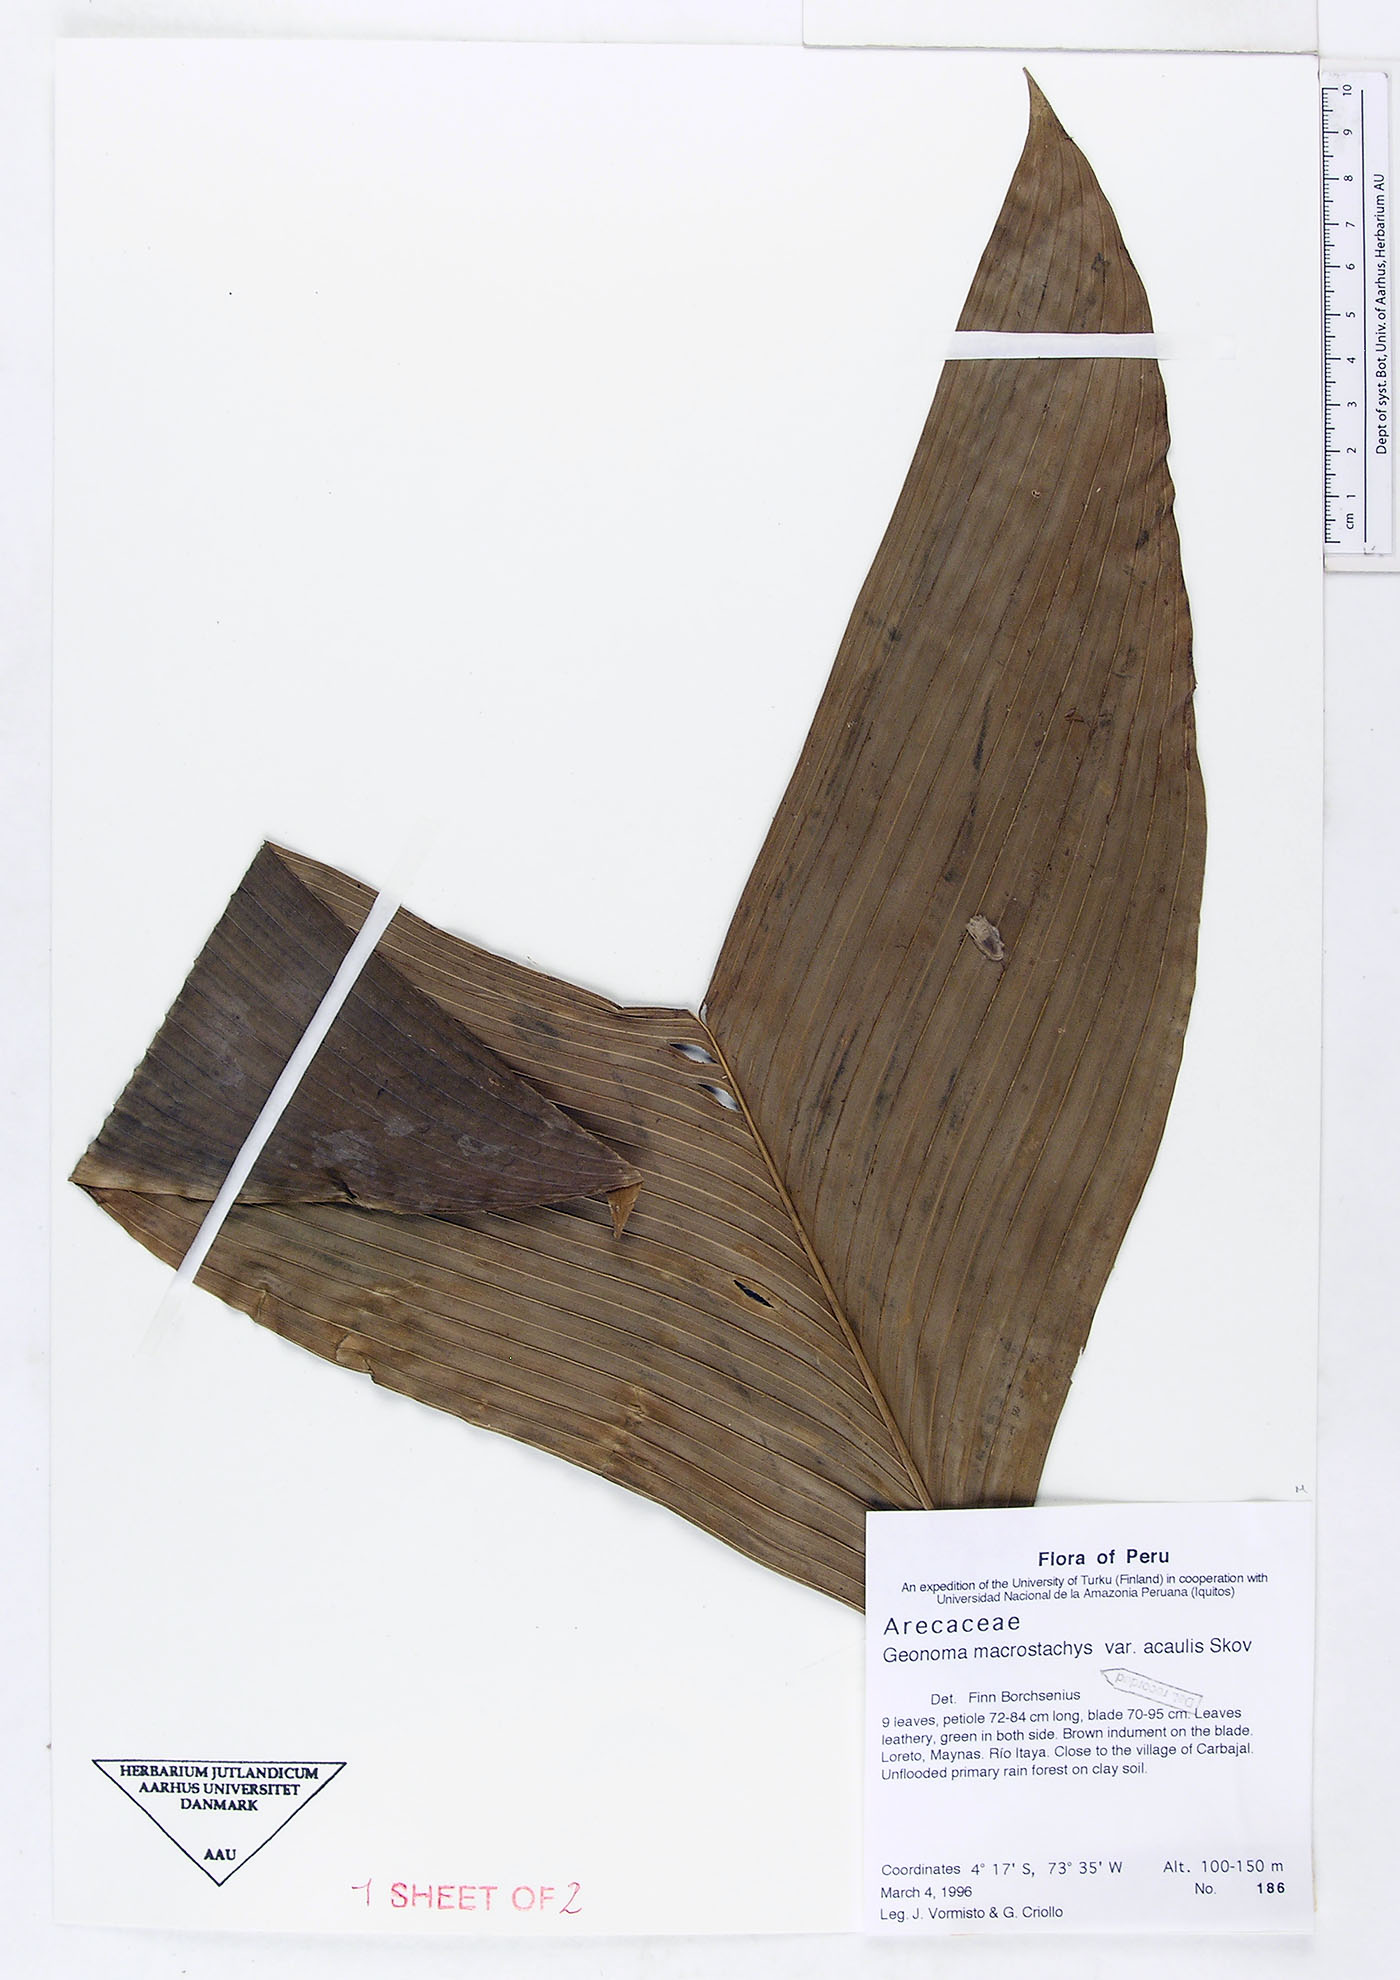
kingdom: Plantae
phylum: Tracheophyta
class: Liliopsida
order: Arecales
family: Arecaceae
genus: Geonoma
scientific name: Geonoma macrostachys
